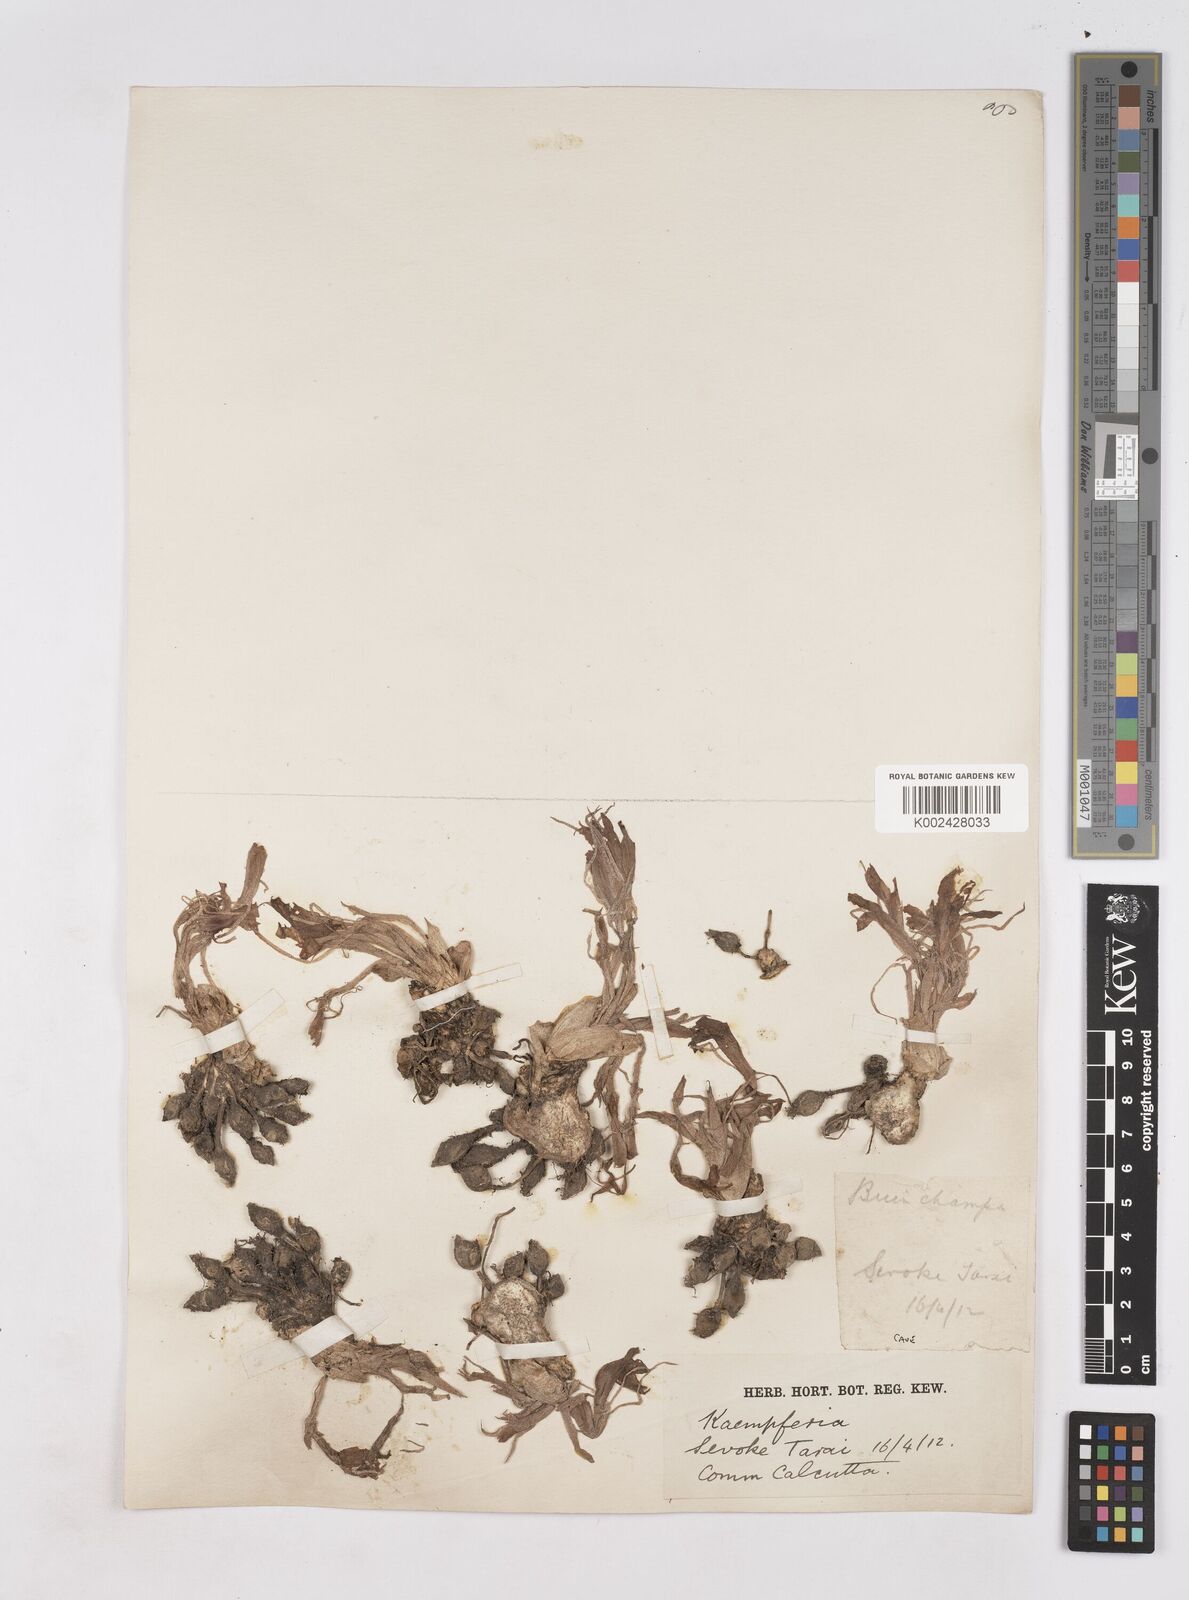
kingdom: Plantae
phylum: Tracheophyta
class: Liliopsida
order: Zingiberales
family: Zingiberaceae
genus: Kaempferia
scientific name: Kaempferia rotunda
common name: Tropical-crocus
